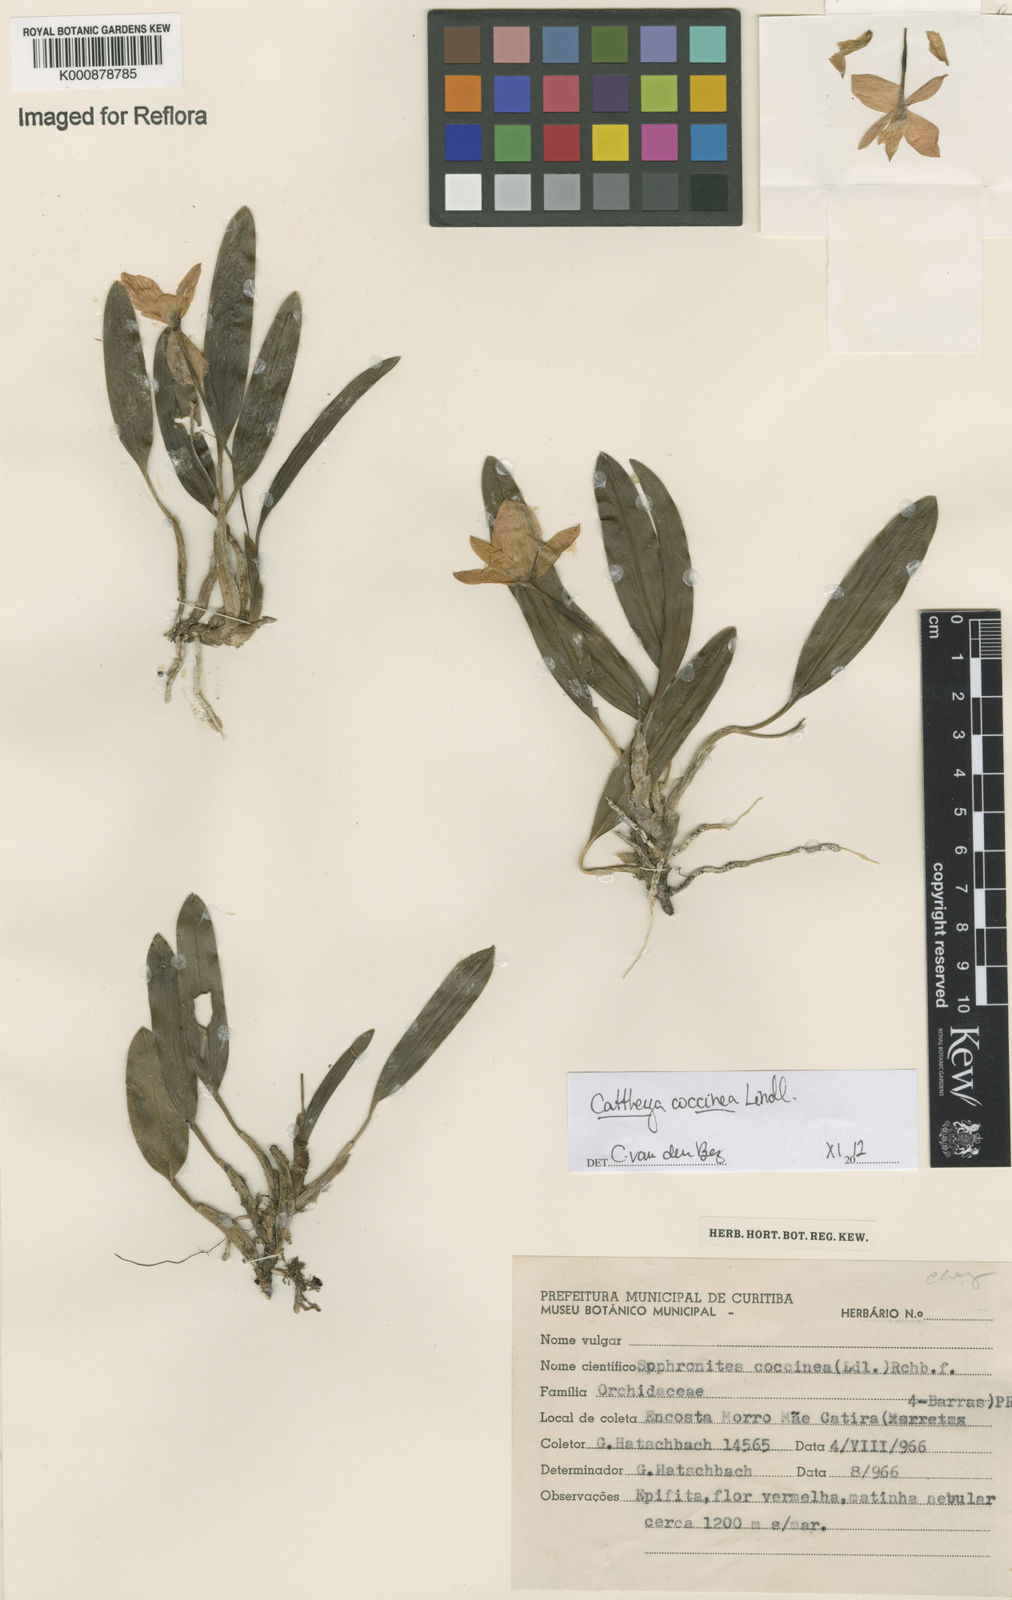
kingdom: Plantae
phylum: Tracheophyta
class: Liliopsida
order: Asparagales
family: Orchidaceae
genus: Cattleya
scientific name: Cattleya coccinea
